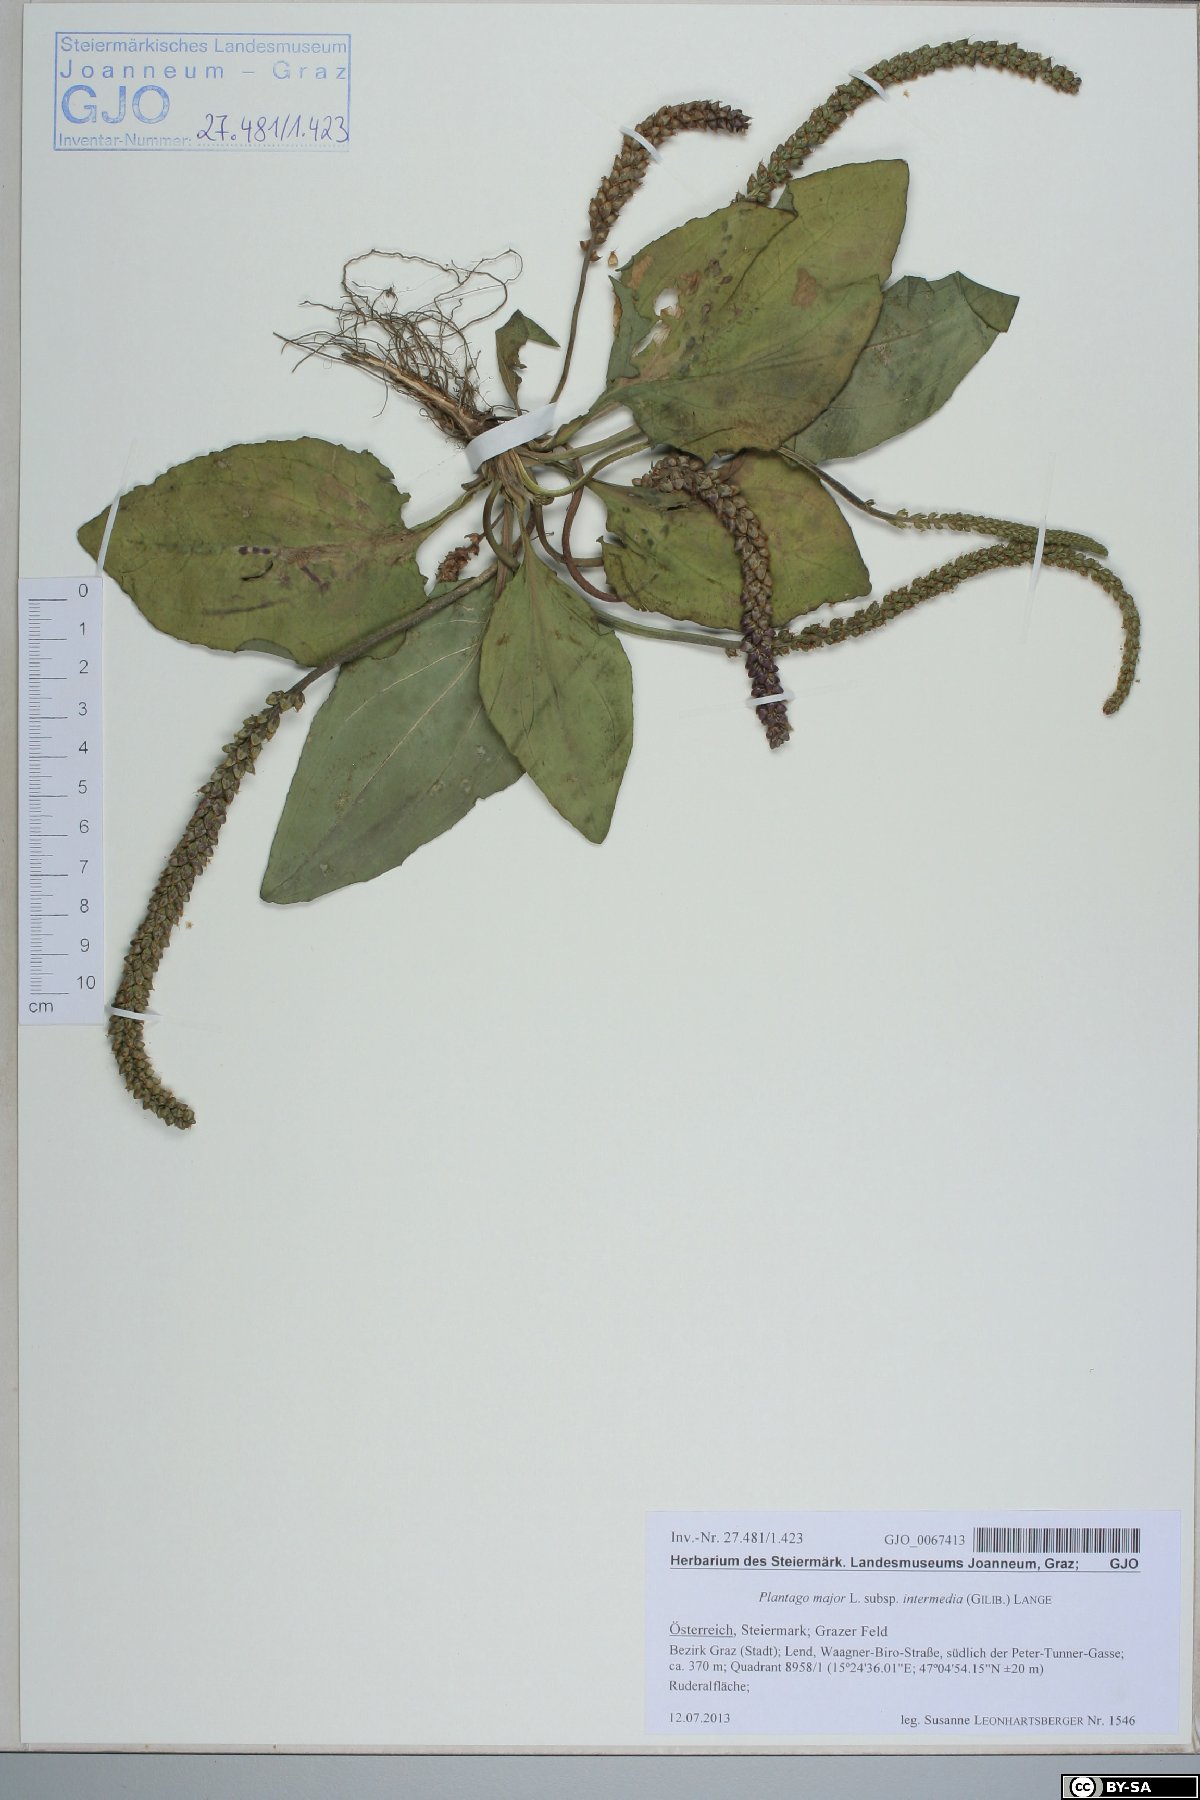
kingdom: Plantae
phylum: Tracheophyta
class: Magnoliopsida
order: Lamiales
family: Plantaginaceae
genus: Plantago
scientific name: Plantago uliginosa
